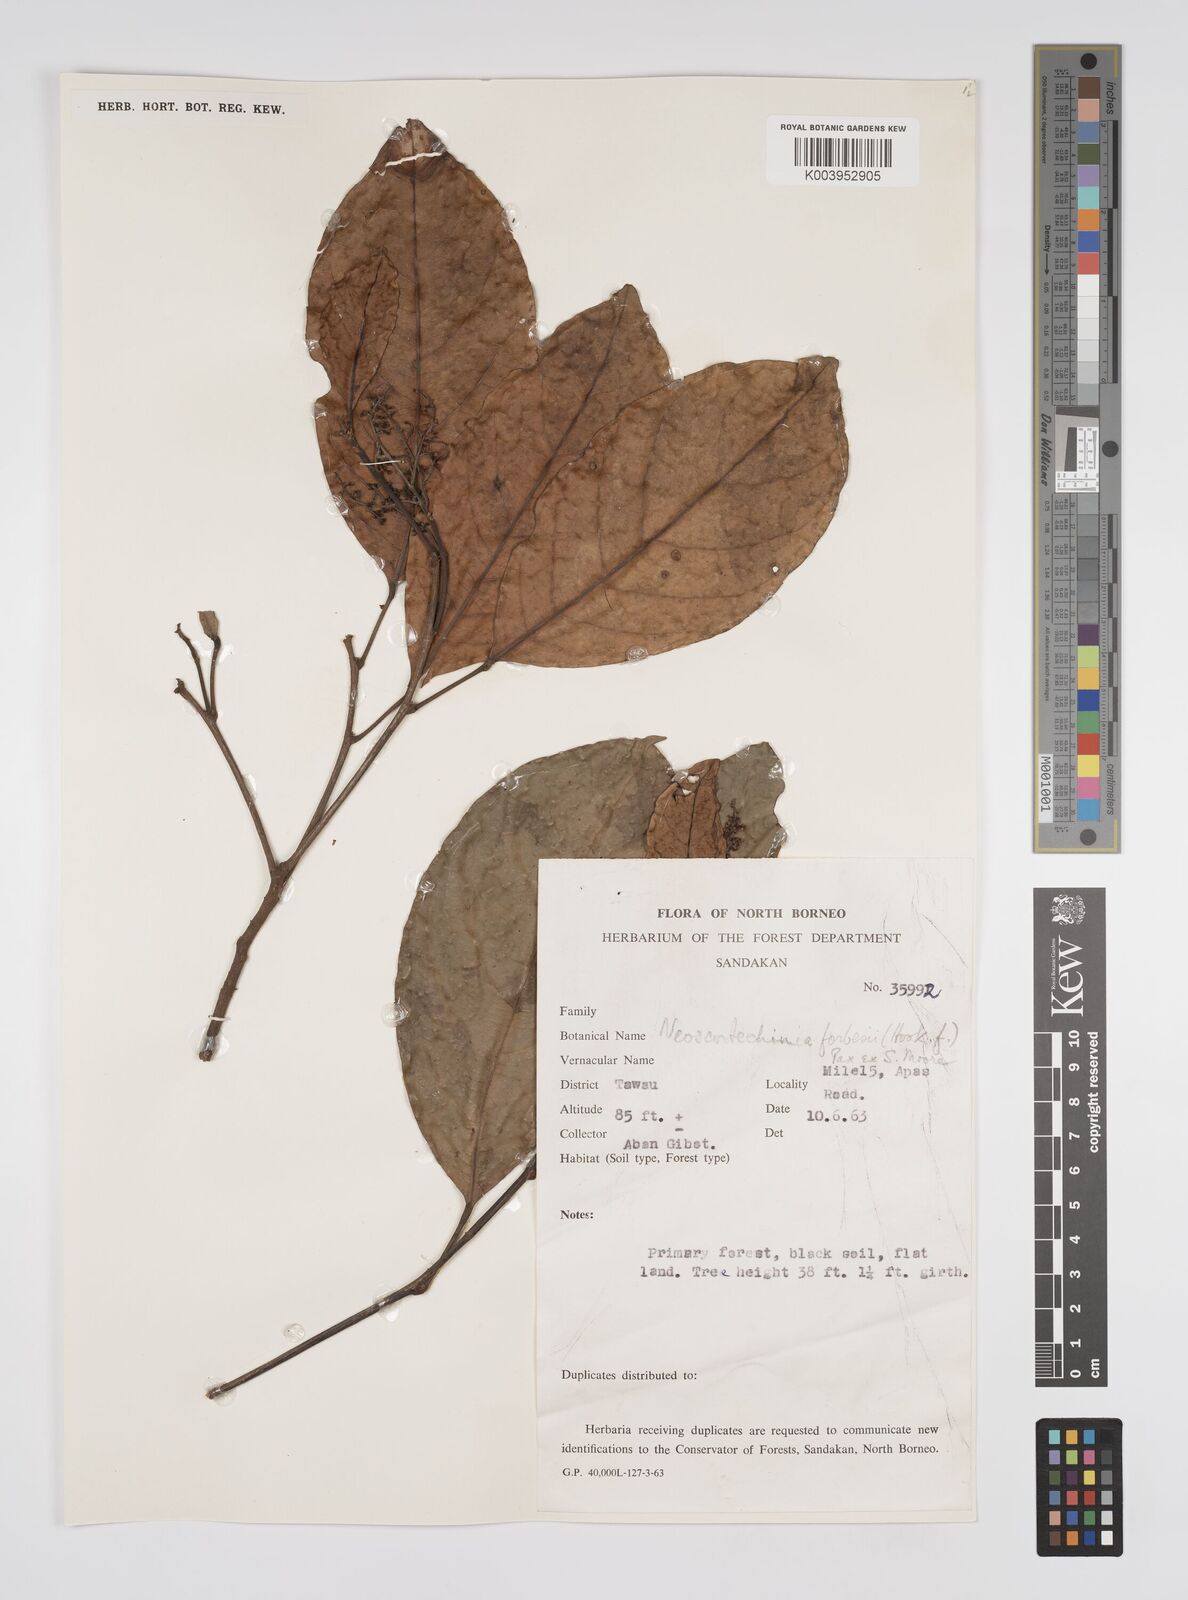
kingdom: Plantae
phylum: Tracheophyta
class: Magnoliopsida
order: Malpighiales
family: Euphorbiaceae
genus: Neoscortechinia
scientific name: Neoscortechinia philippinensis
